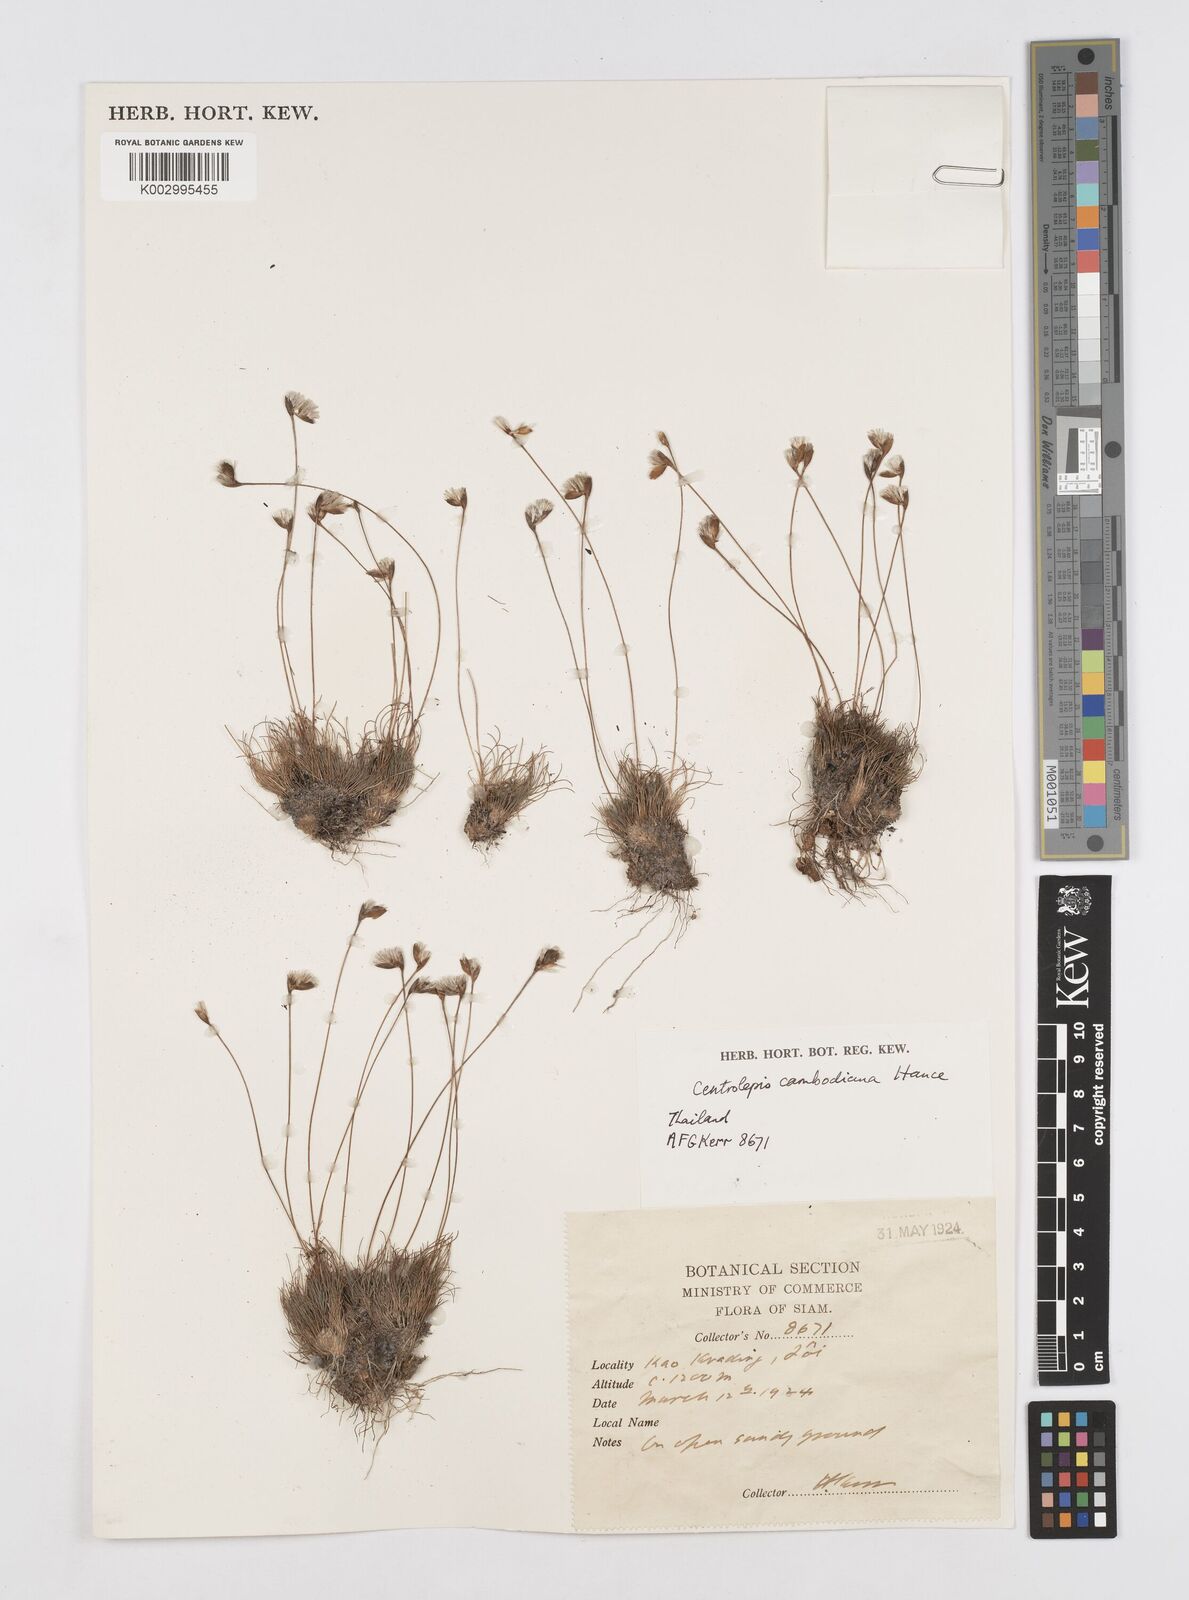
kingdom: Plantae
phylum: Tracheophyta
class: Liliopsida
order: Poales
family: Restionaceae
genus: Centrolepis
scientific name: Centrolepis cambodiana
